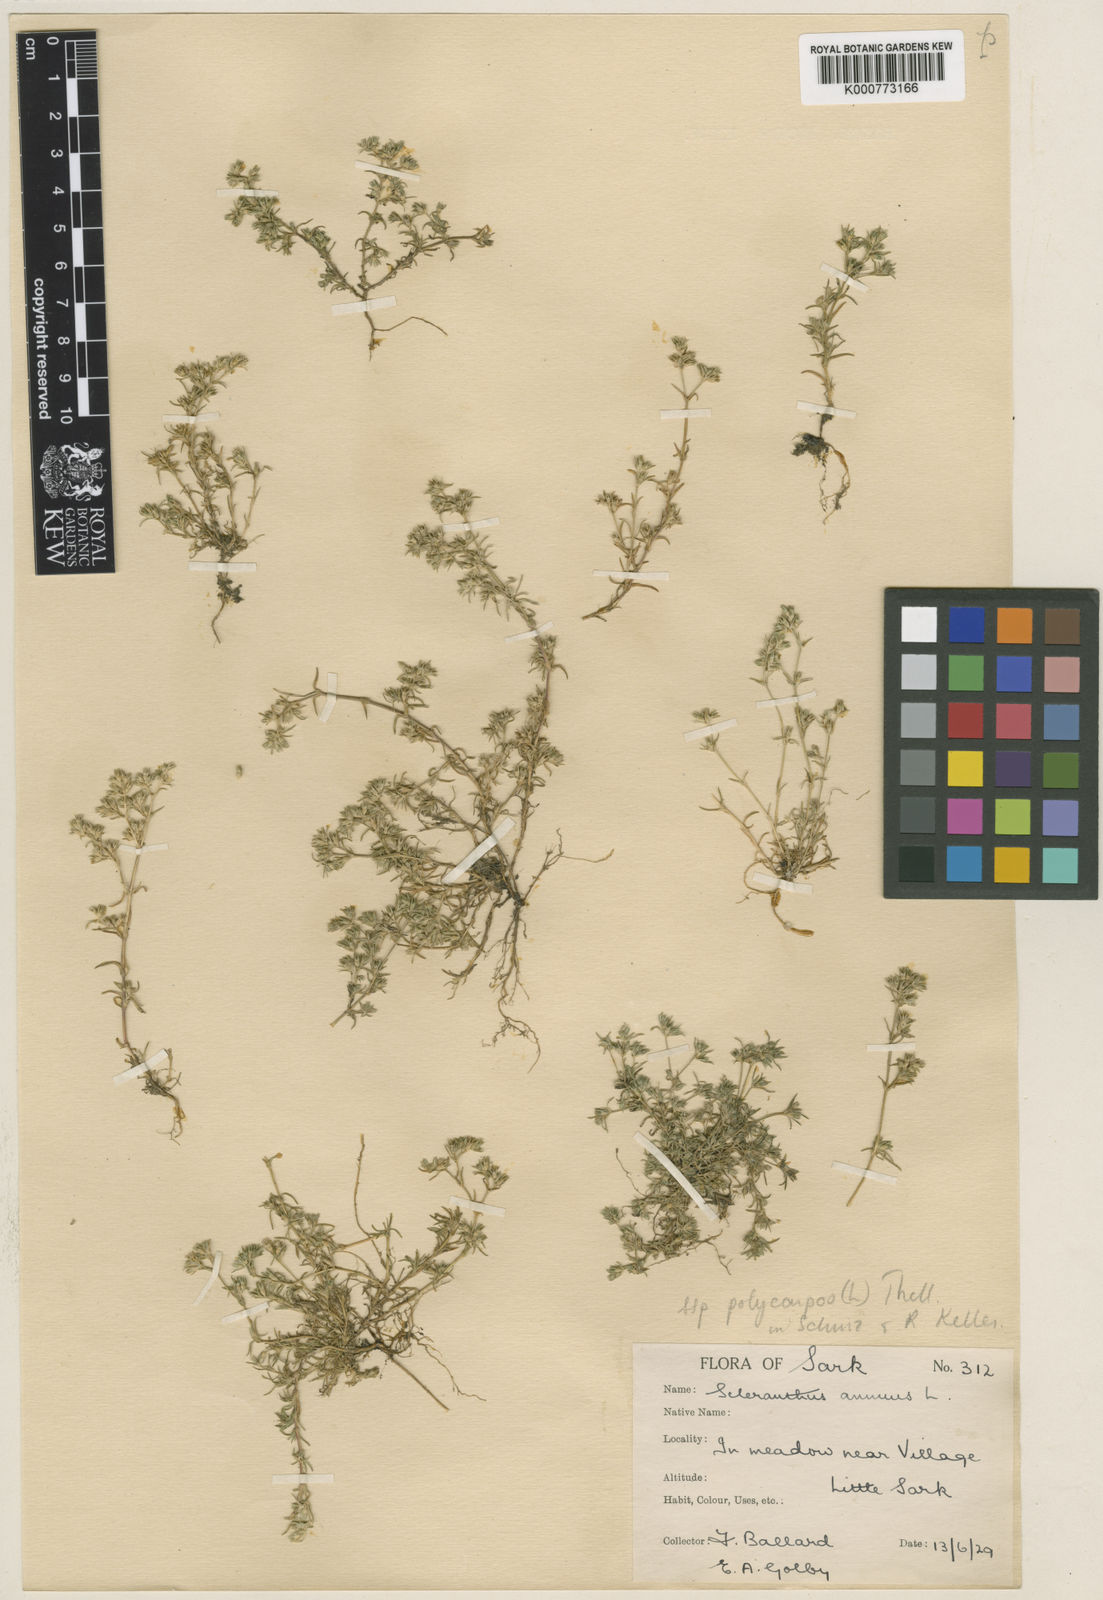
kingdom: Plantae
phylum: Tracheophyta
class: Magnoliopsida
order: Caryophyllales
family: Caryophyllaceae
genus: Scleranthus
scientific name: Scleranthus annuus
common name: Annual knawel
